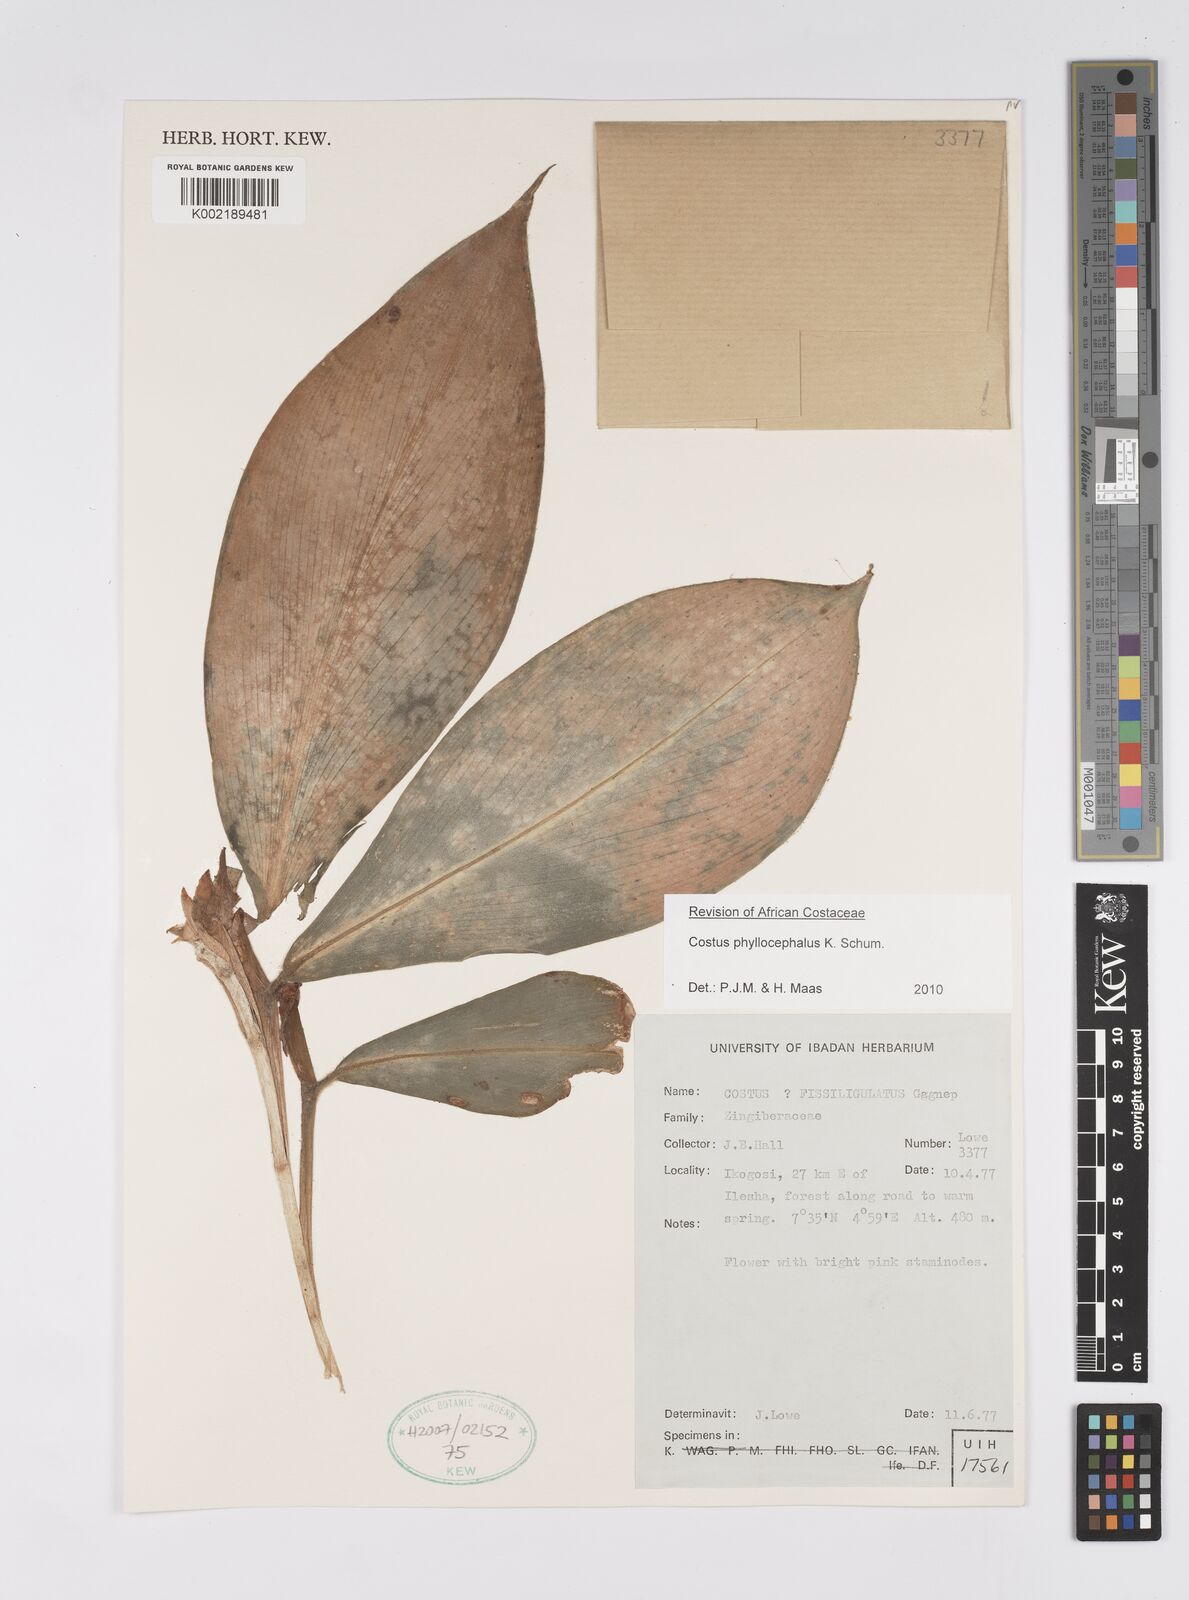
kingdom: Plantae
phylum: Tracheophyta
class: Liliopsida
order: Zingiberales
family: Costaceae
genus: Costus
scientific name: Costus phyllocephalus
